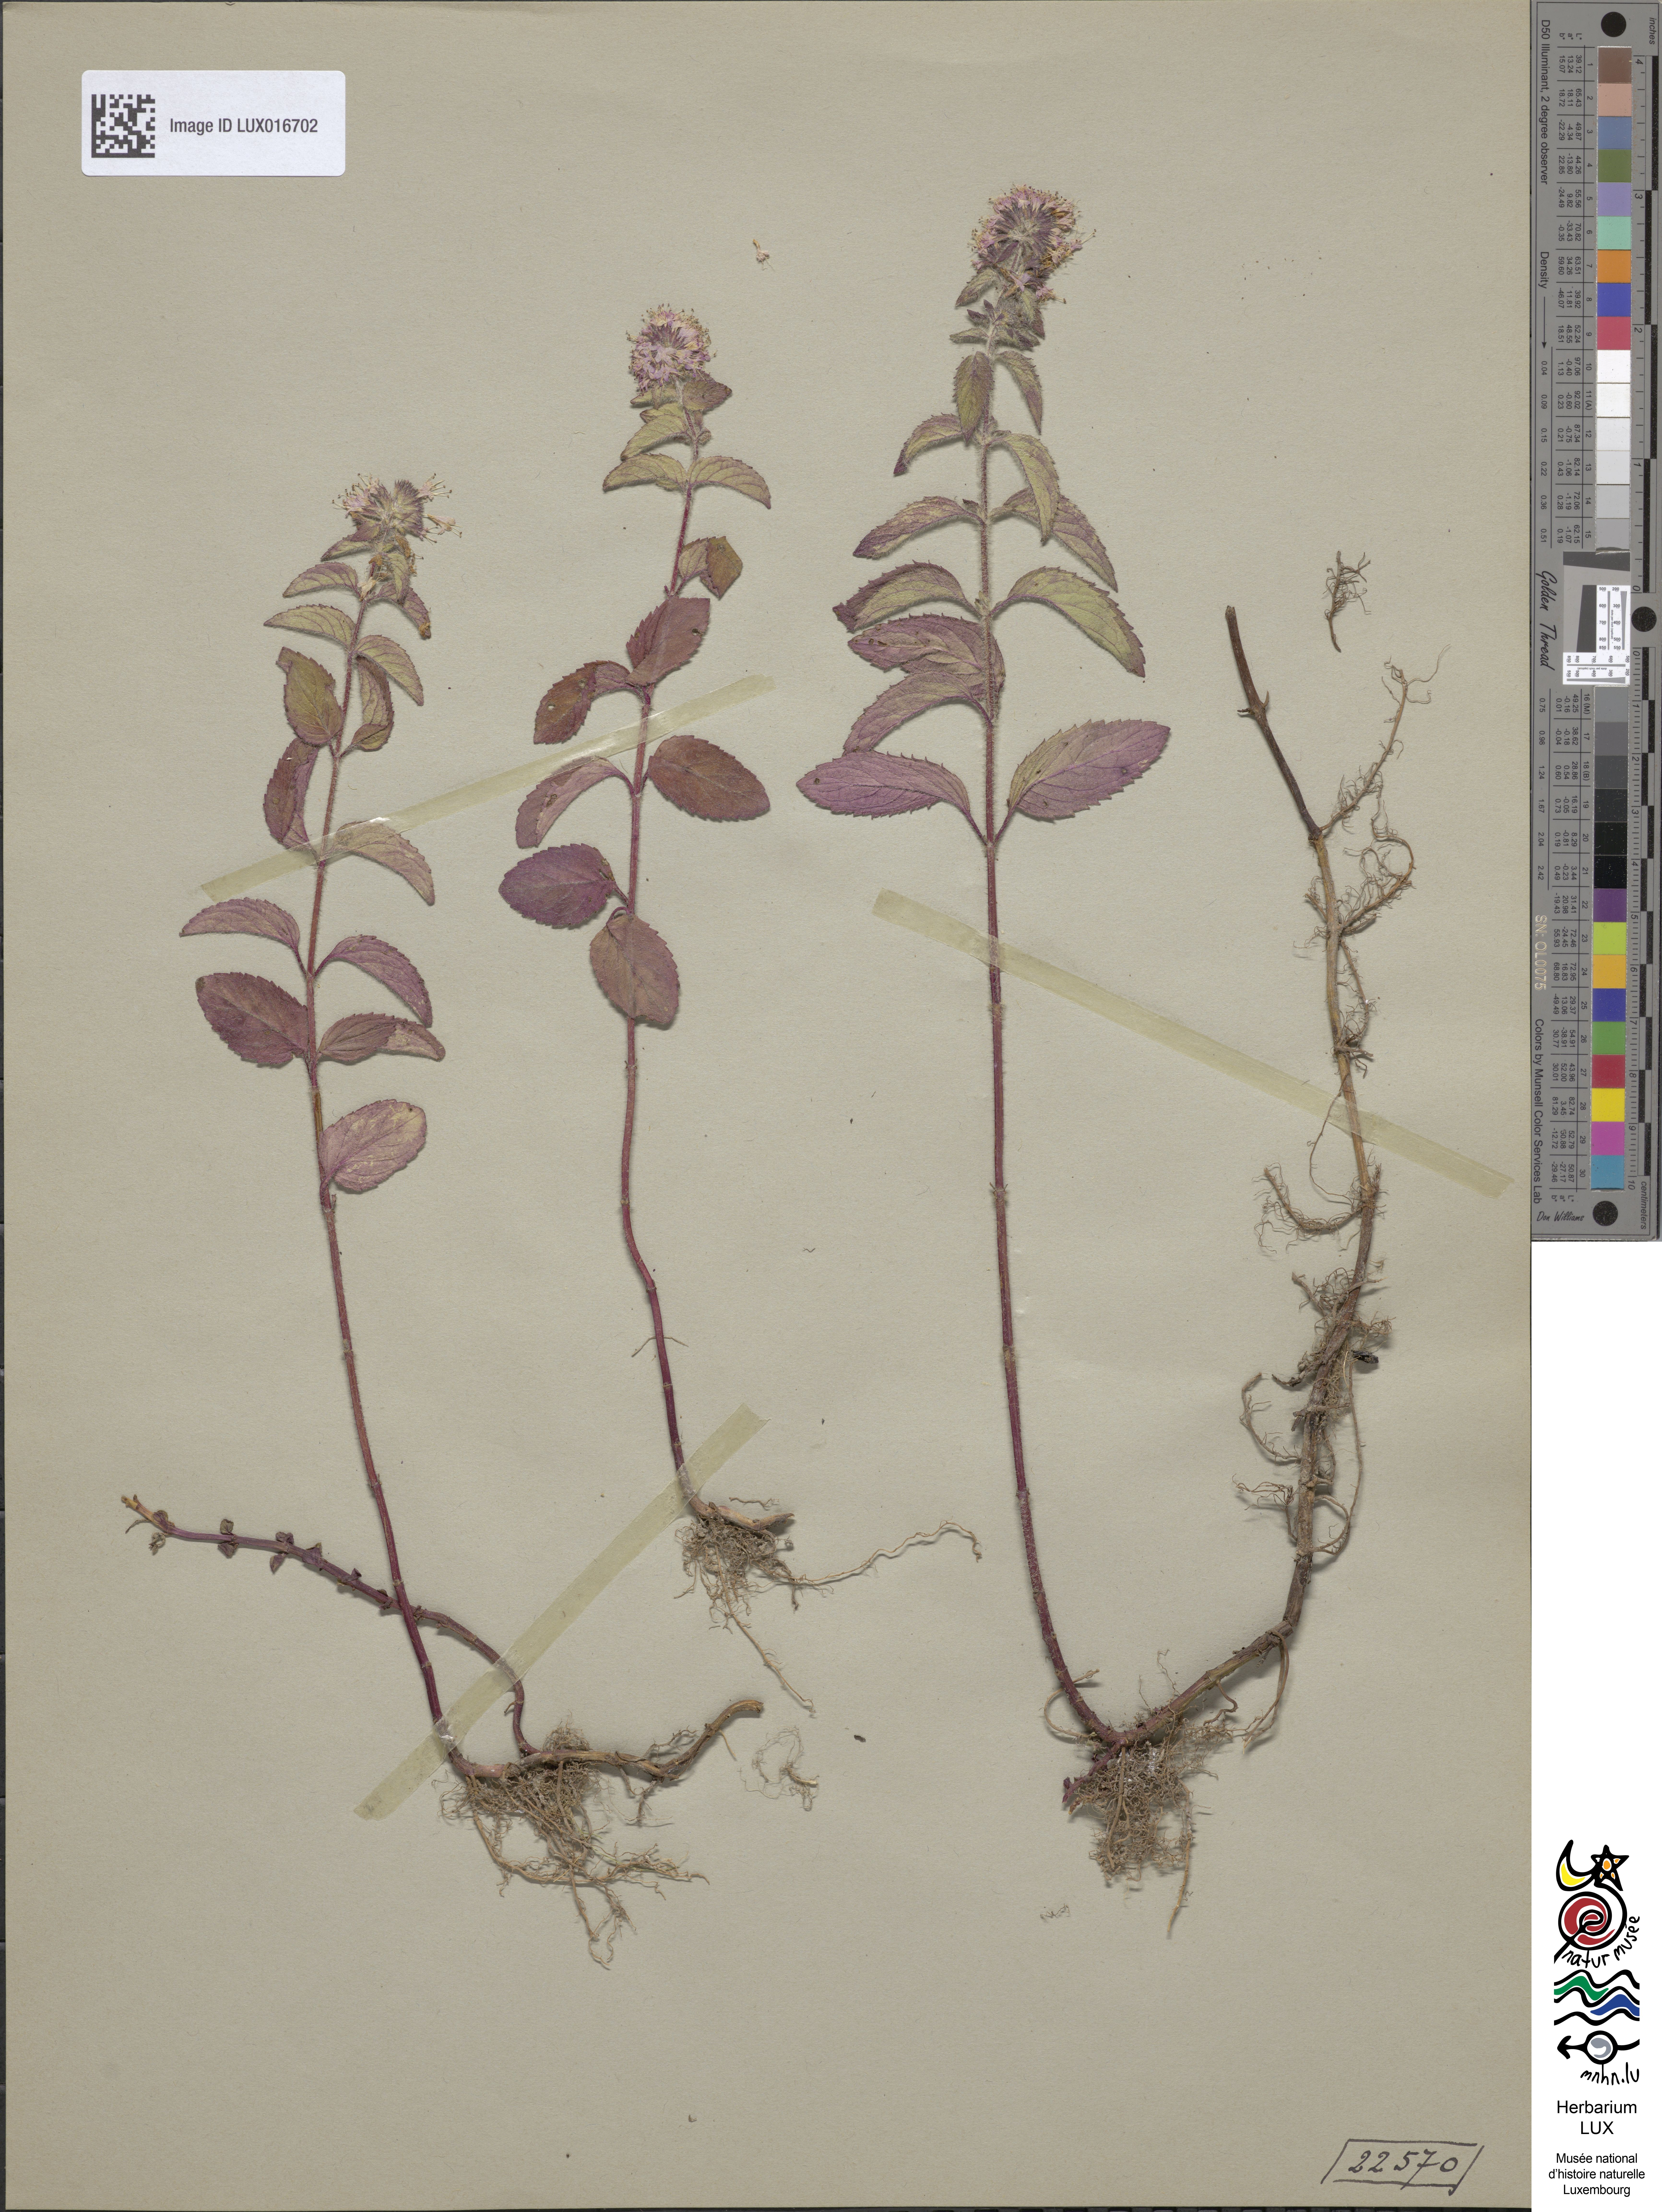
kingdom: Plantae
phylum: Tracheophyta
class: Magnoliopsida
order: Lamiales
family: Lamiaceae
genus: Mentha
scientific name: Mentha aquatica
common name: Water mint
